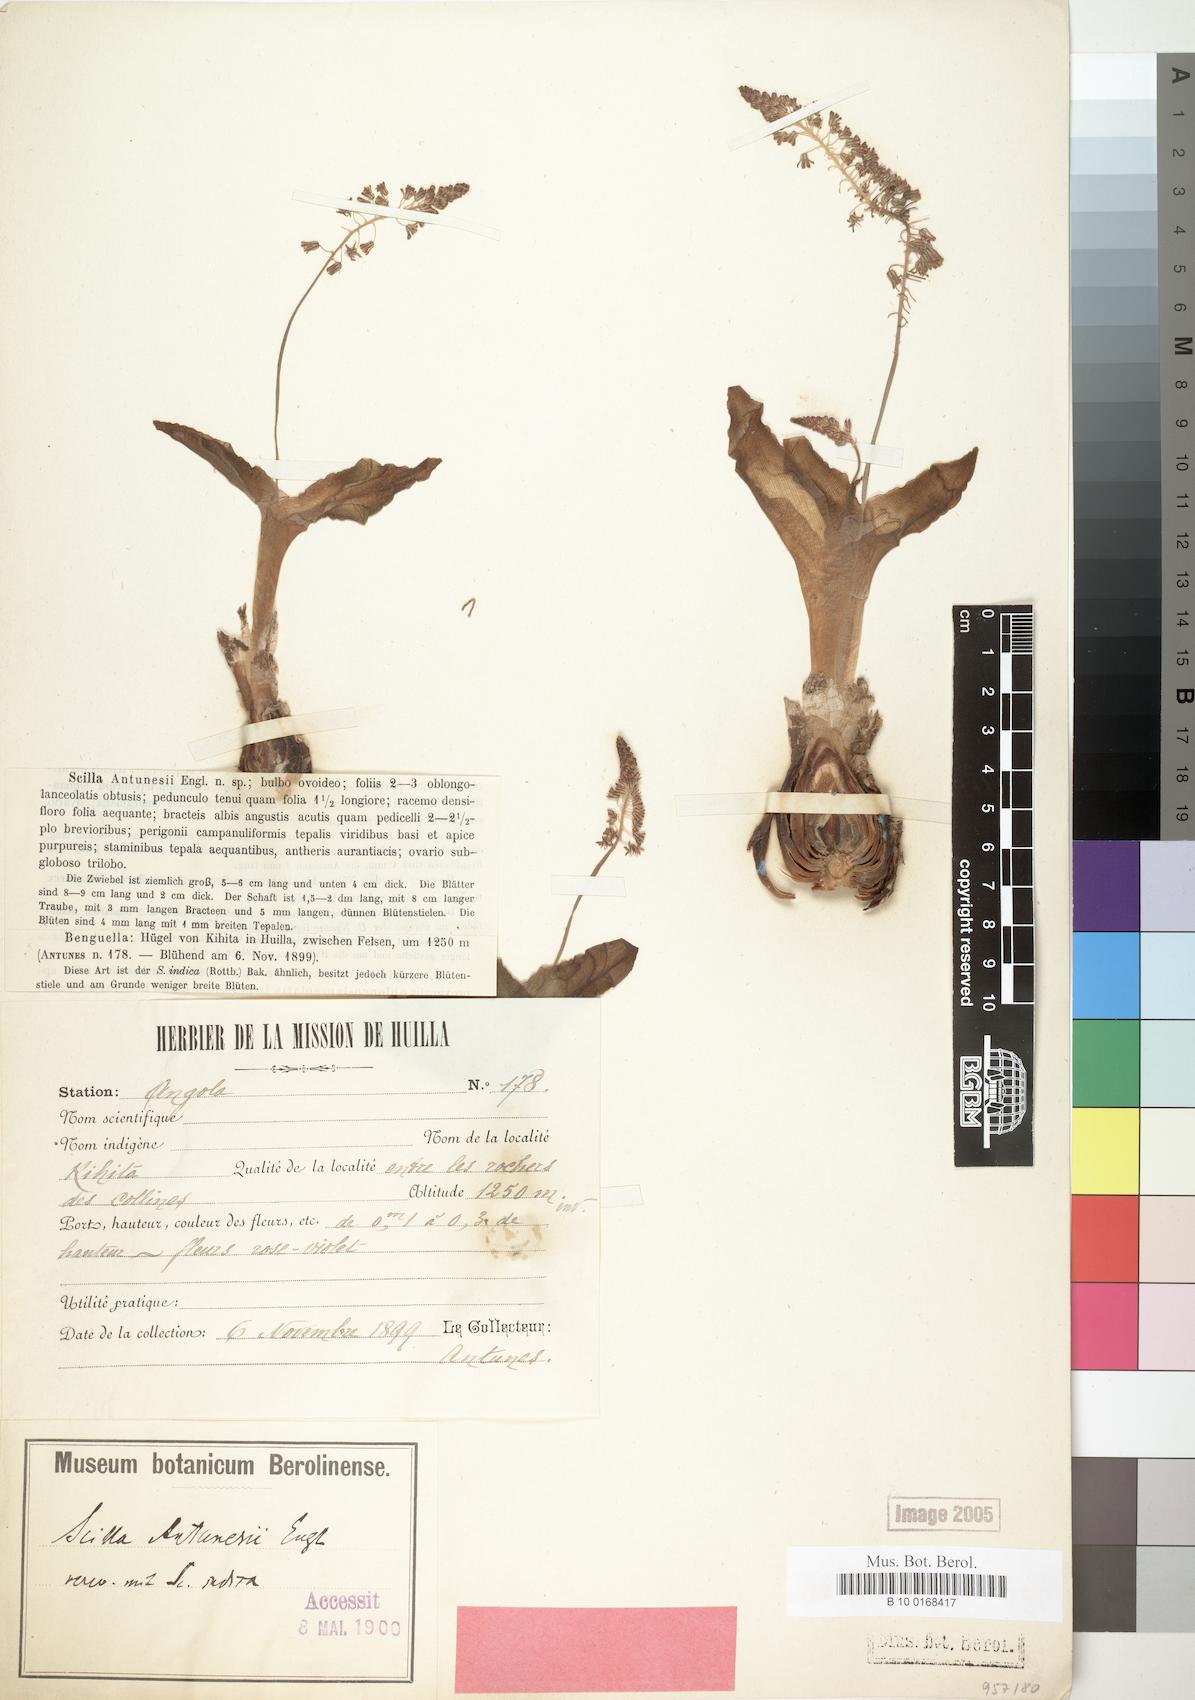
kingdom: Plantae
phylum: Tracheophyta
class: Liliopsida
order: Asparagales
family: Asparagaceae
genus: Scilla
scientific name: Scilla antunesii
